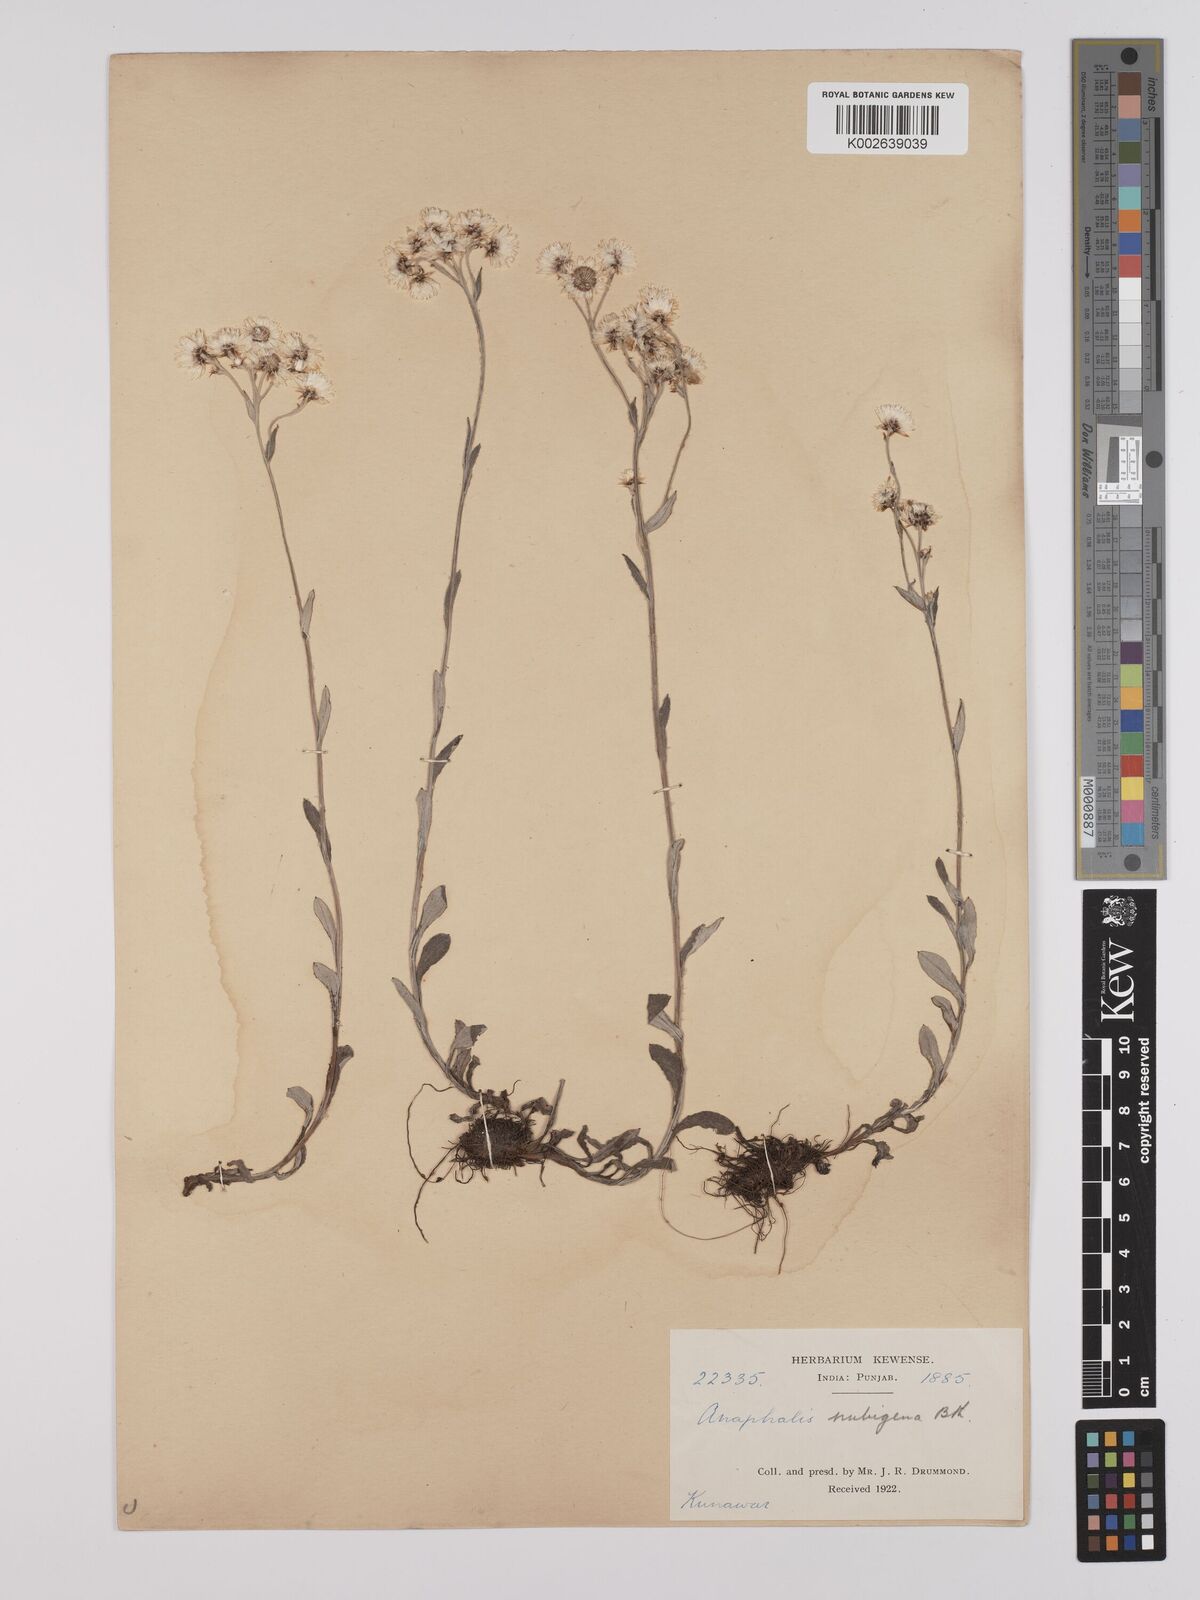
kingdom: Plantae
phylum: Tracheophyta
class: Magnoliopsida
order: Asterales
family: Asteraceae
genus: Anaphalioides
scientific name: Anaphalioides trinervis
